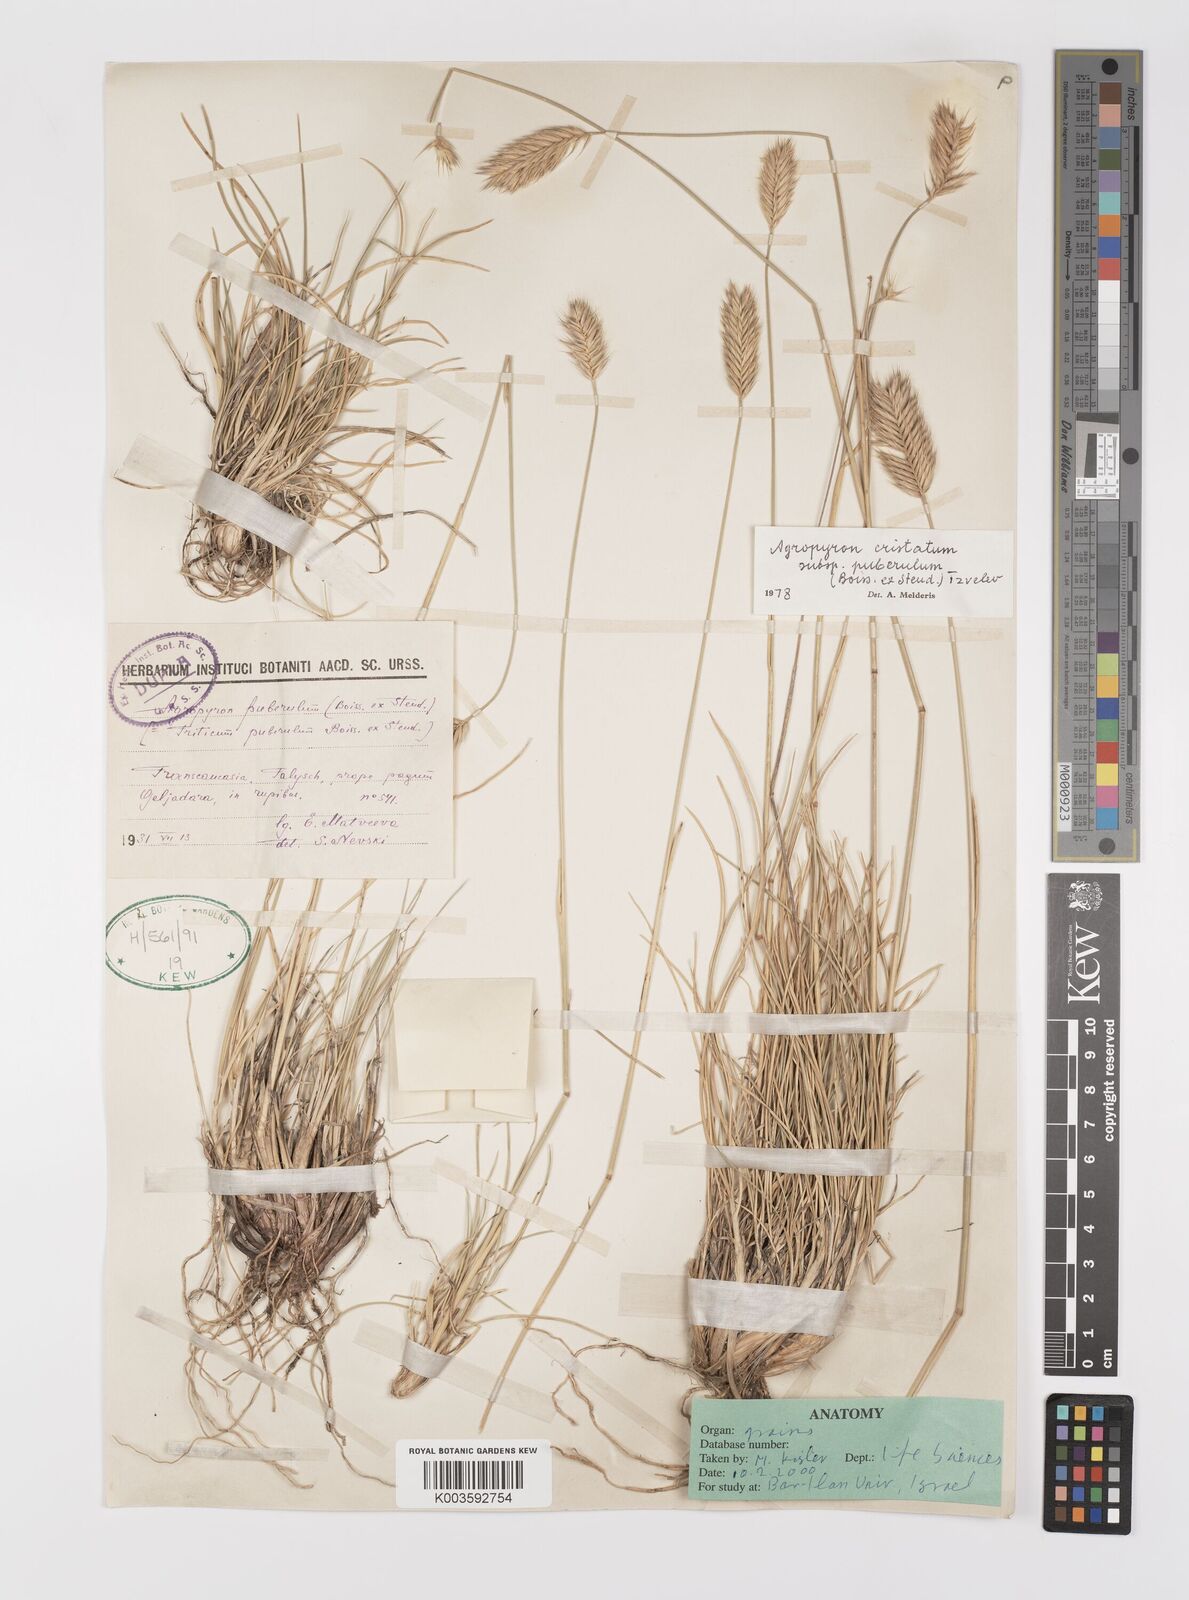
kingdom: Plantae
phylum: Tracheophyta
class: Liliopsida
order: Poales
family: Poaceae
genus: Agropyron
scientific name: Agropyron cristatum
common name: Crested wheatgrass
